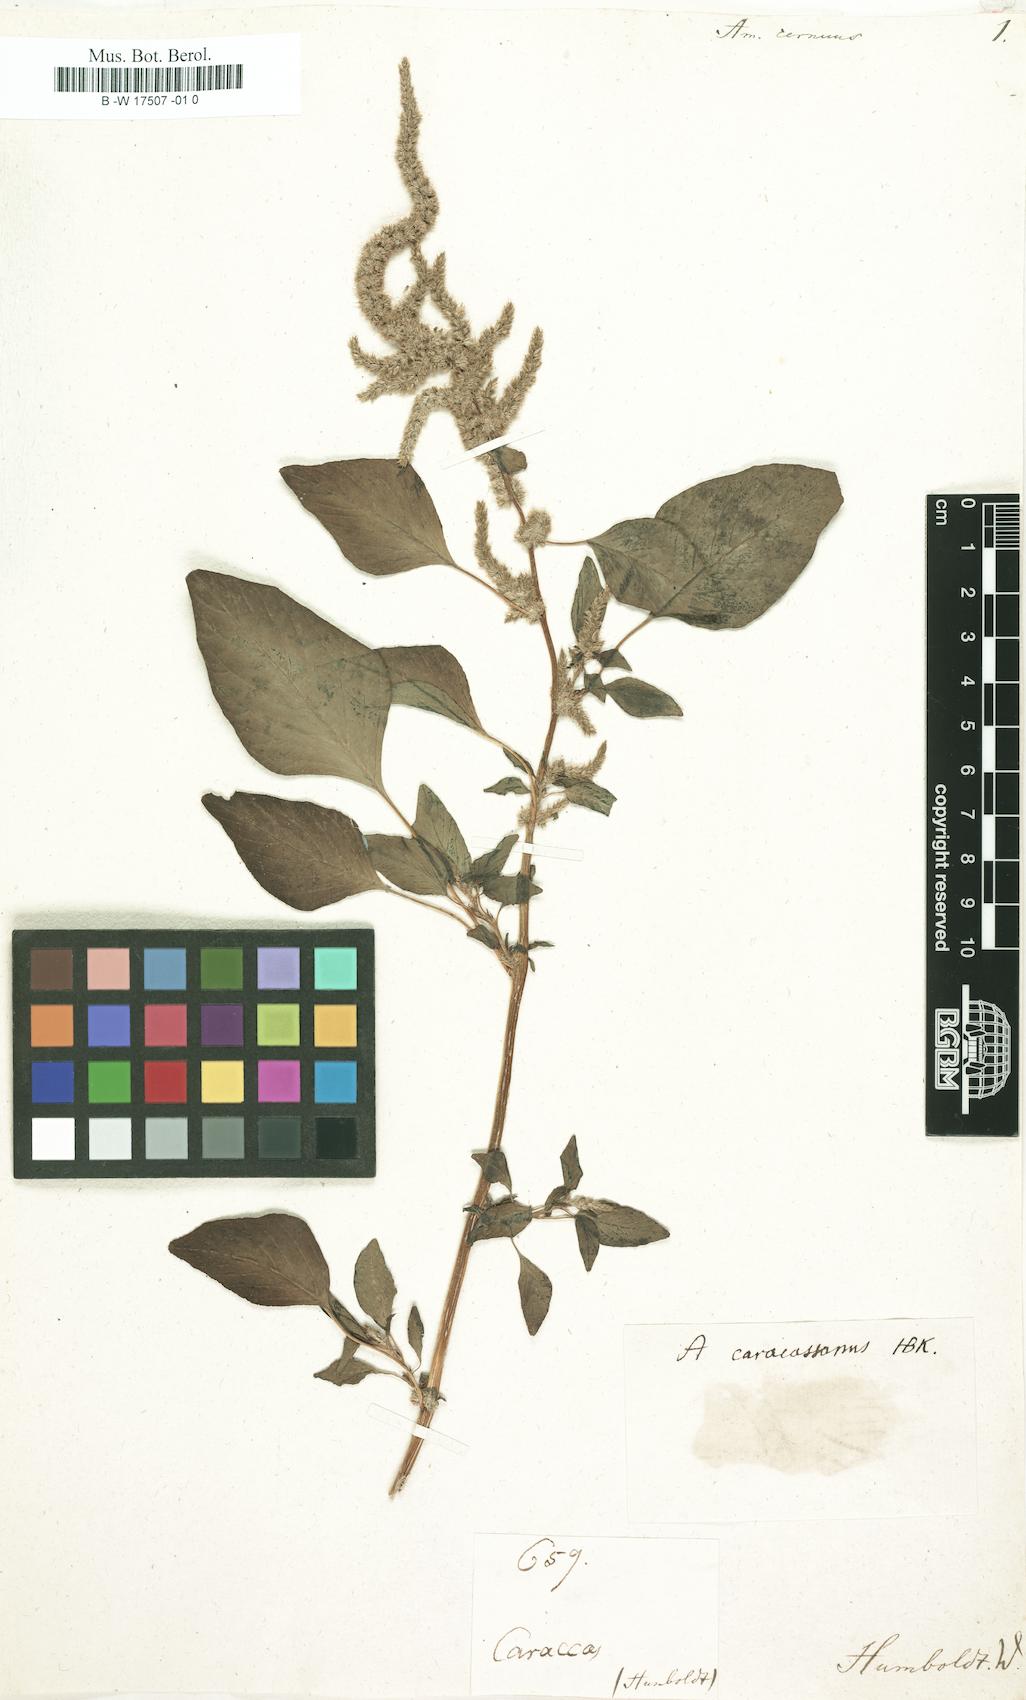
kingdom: Plantae
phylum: Tracheophyta
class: Magnoliopsida
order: Caryophyllales
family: Amaranthaceae
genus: Amaranthus
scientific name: Amaranthus cernuus
